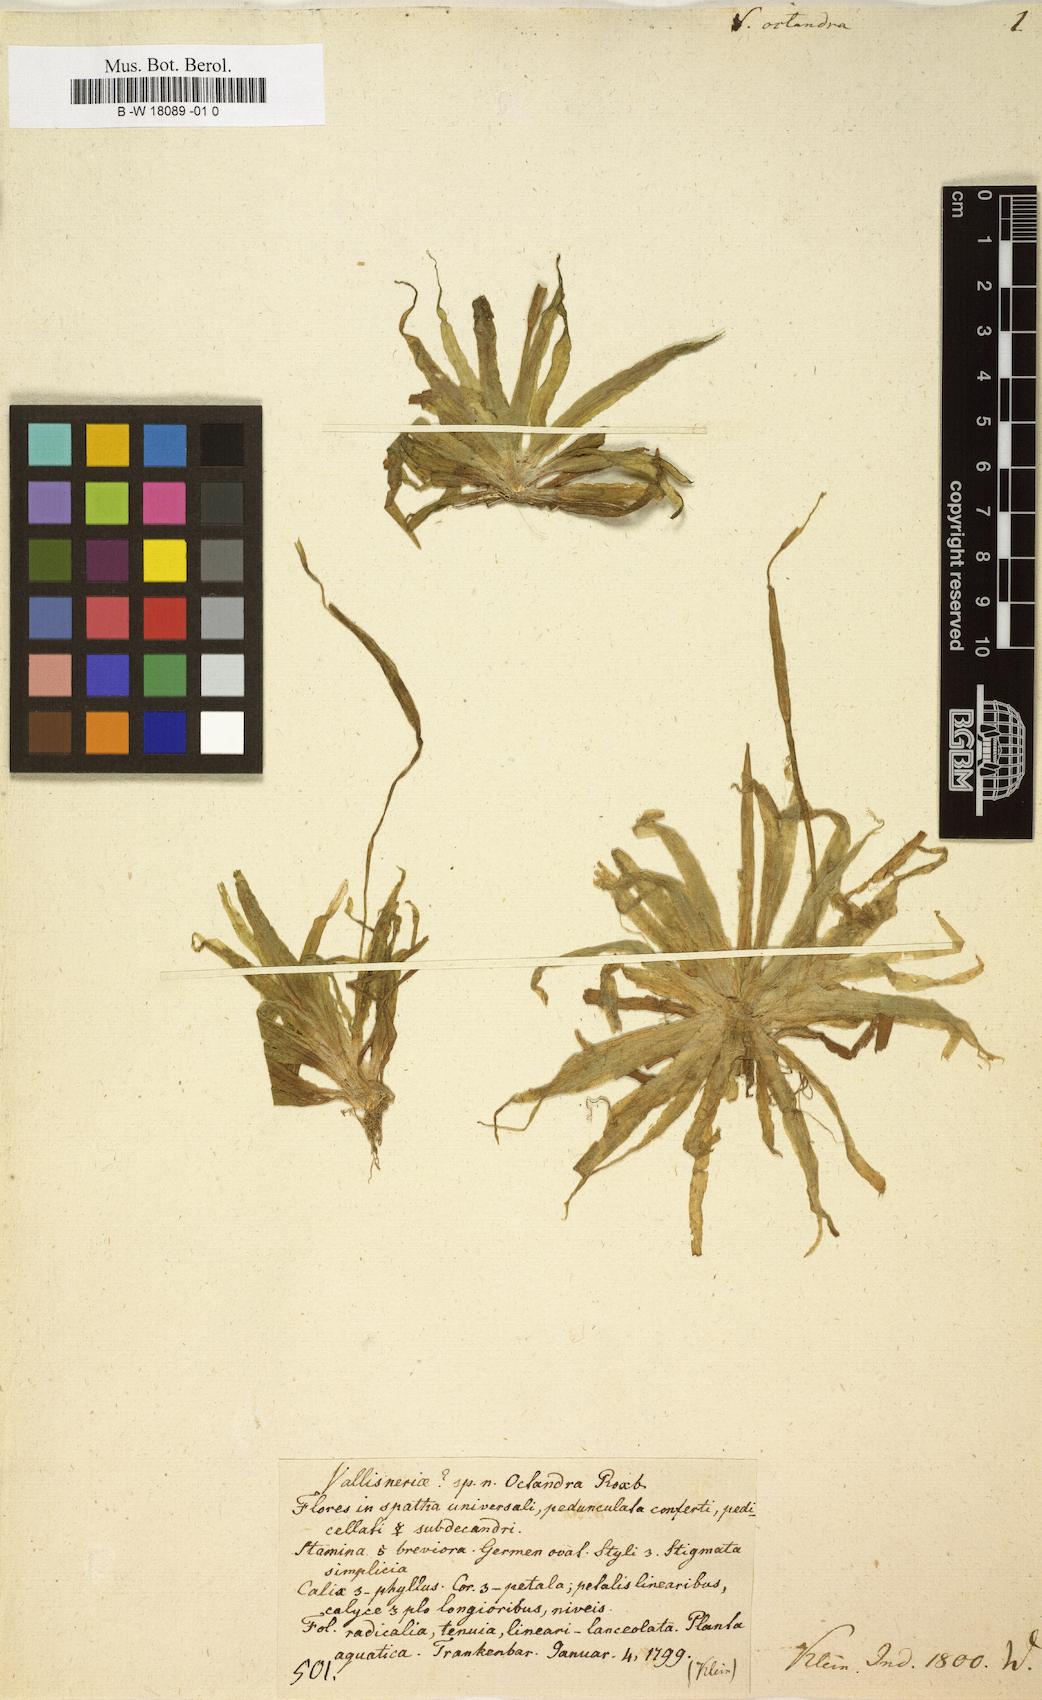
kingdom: Plantae
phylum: Tracheophyta
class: Liliopsida
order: Alismatales
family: Hydrocharitaceae
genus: Blyxa
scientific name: Blyxa octandra
